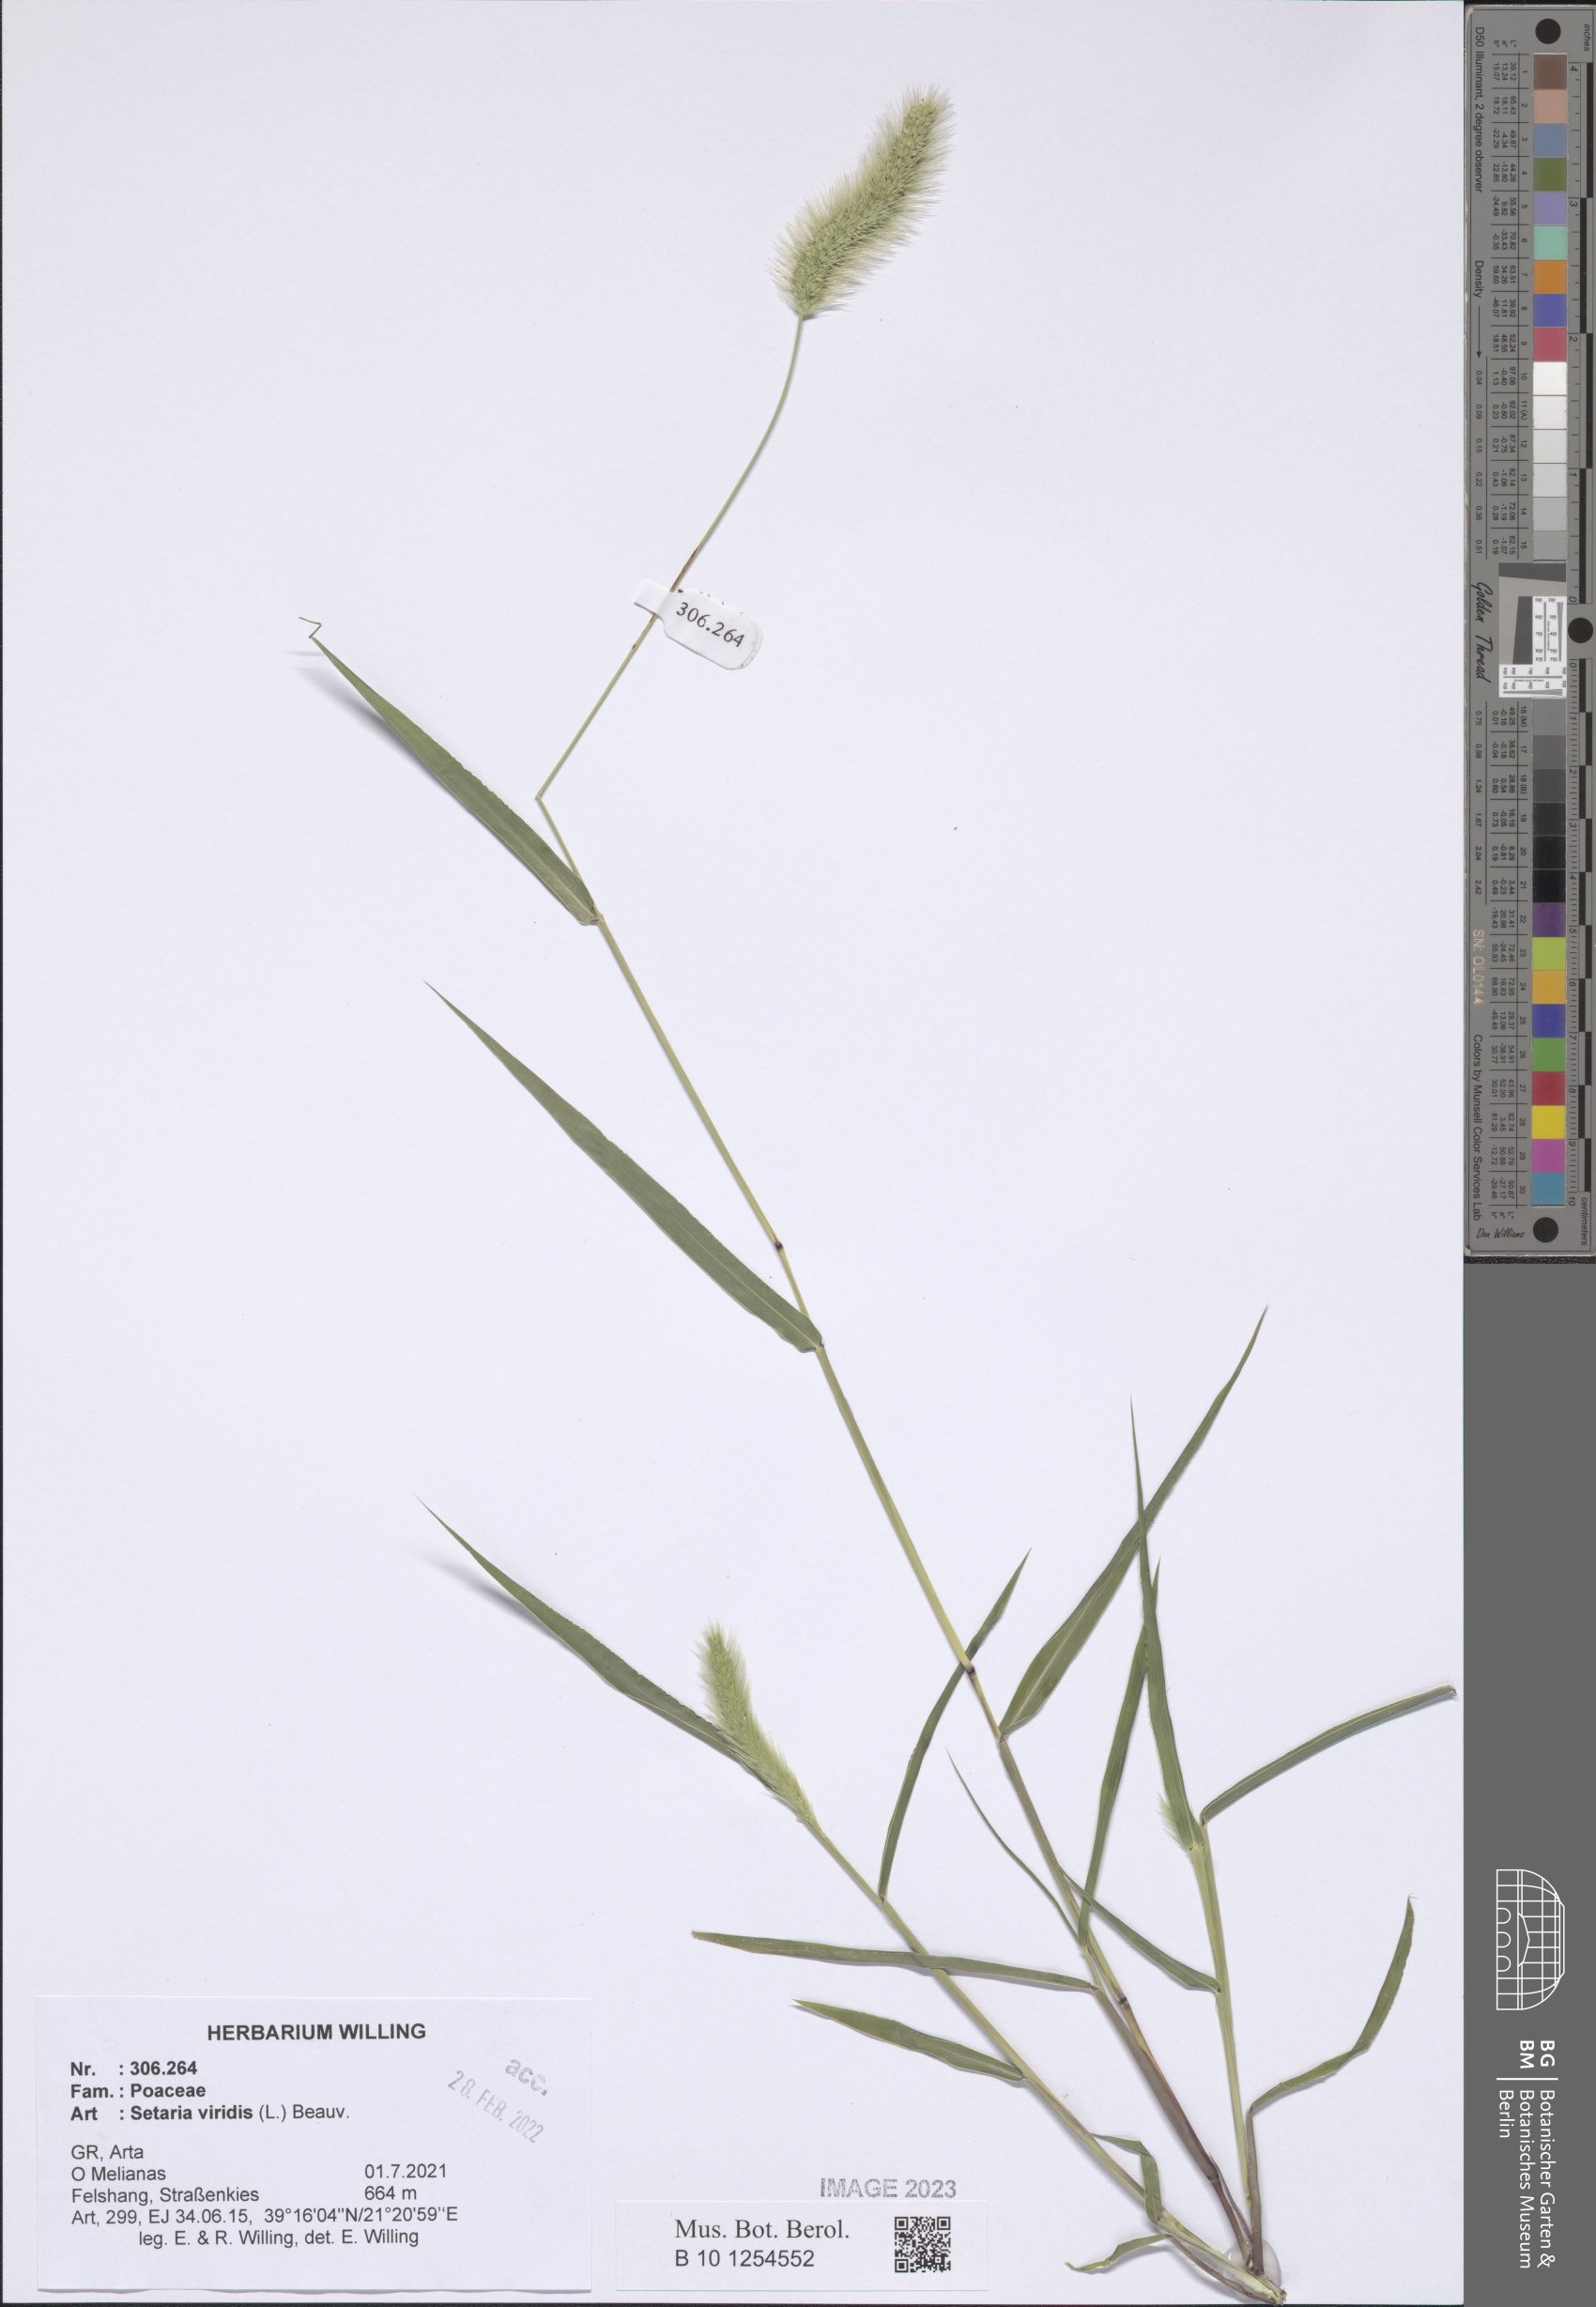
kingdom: Plantae
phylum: Tracheophyta
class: Liliopsida
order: Poales
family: Poaceae
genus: Setaria
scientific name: Setaria viridis
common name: Green bristlegrass
